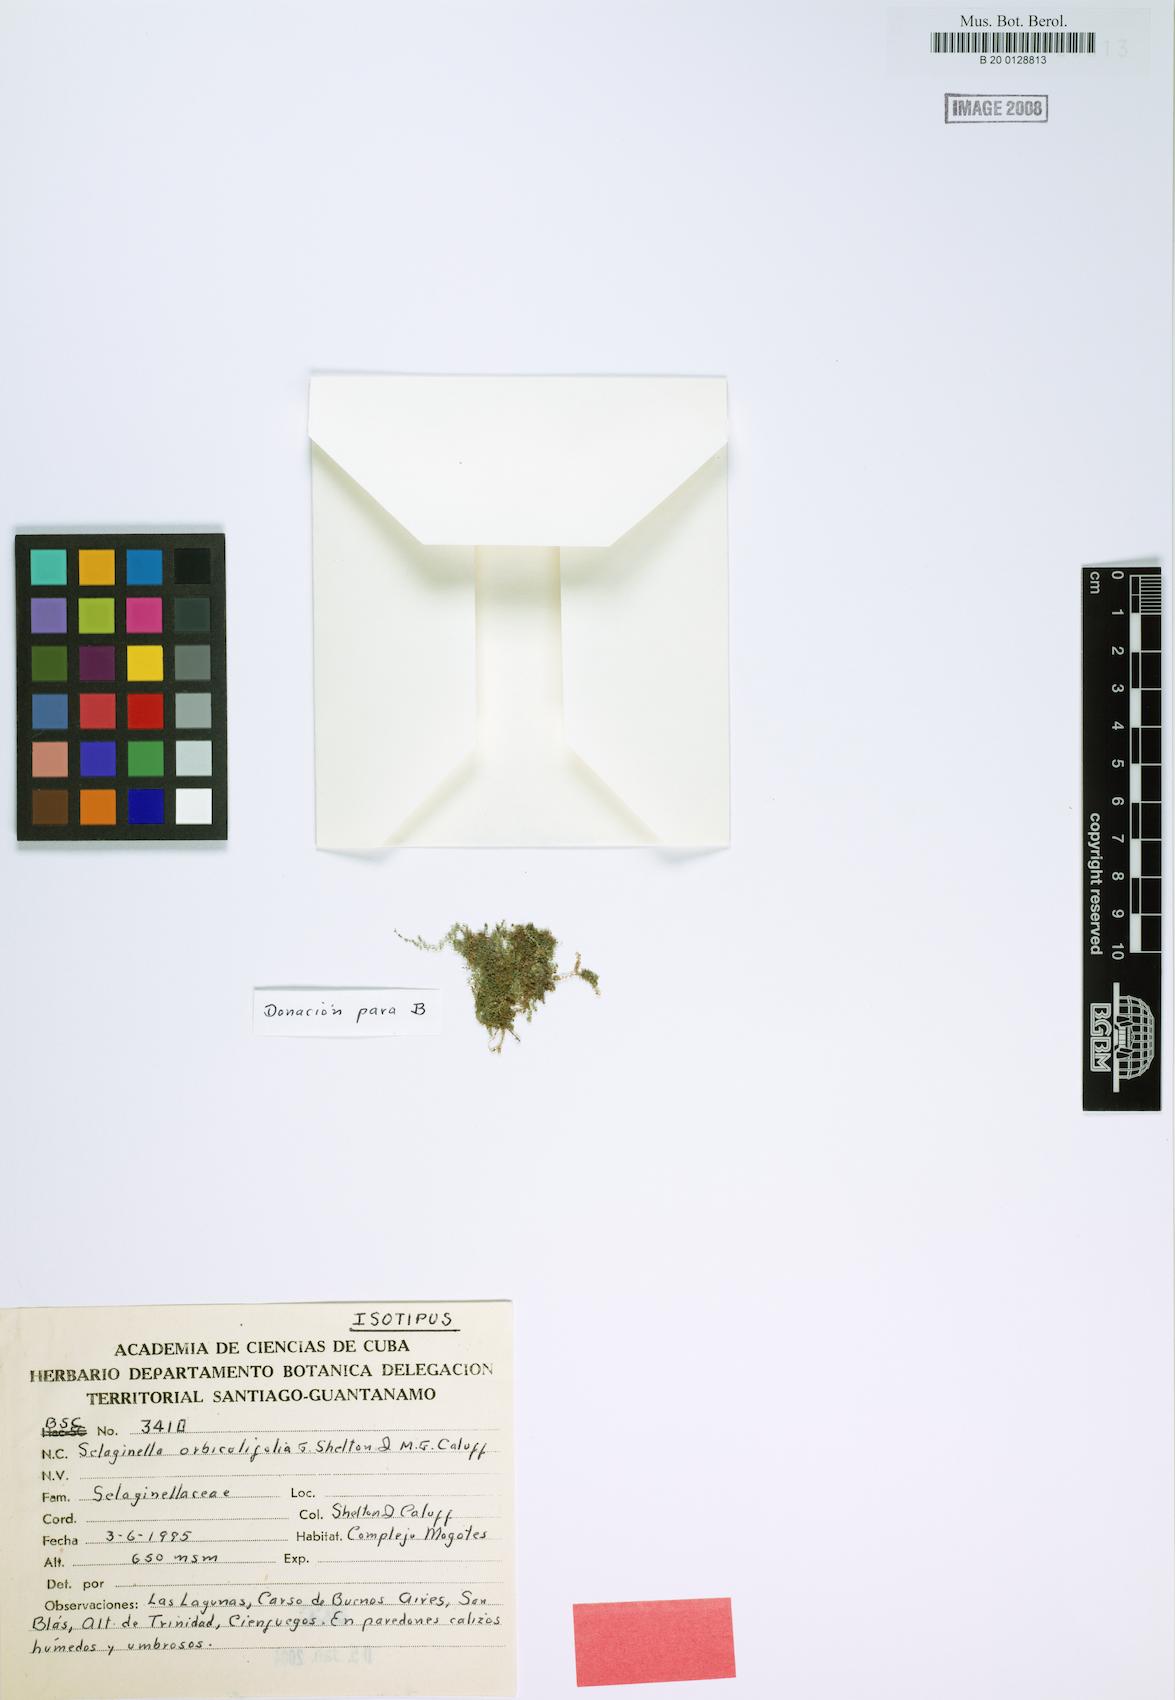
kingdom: Plantae
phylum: Tracheophyta
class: Lycopodiopsida
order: Selaginellales
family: Selaginellaceae
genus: Selaginella
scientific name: Selaginella orbiculifolia
